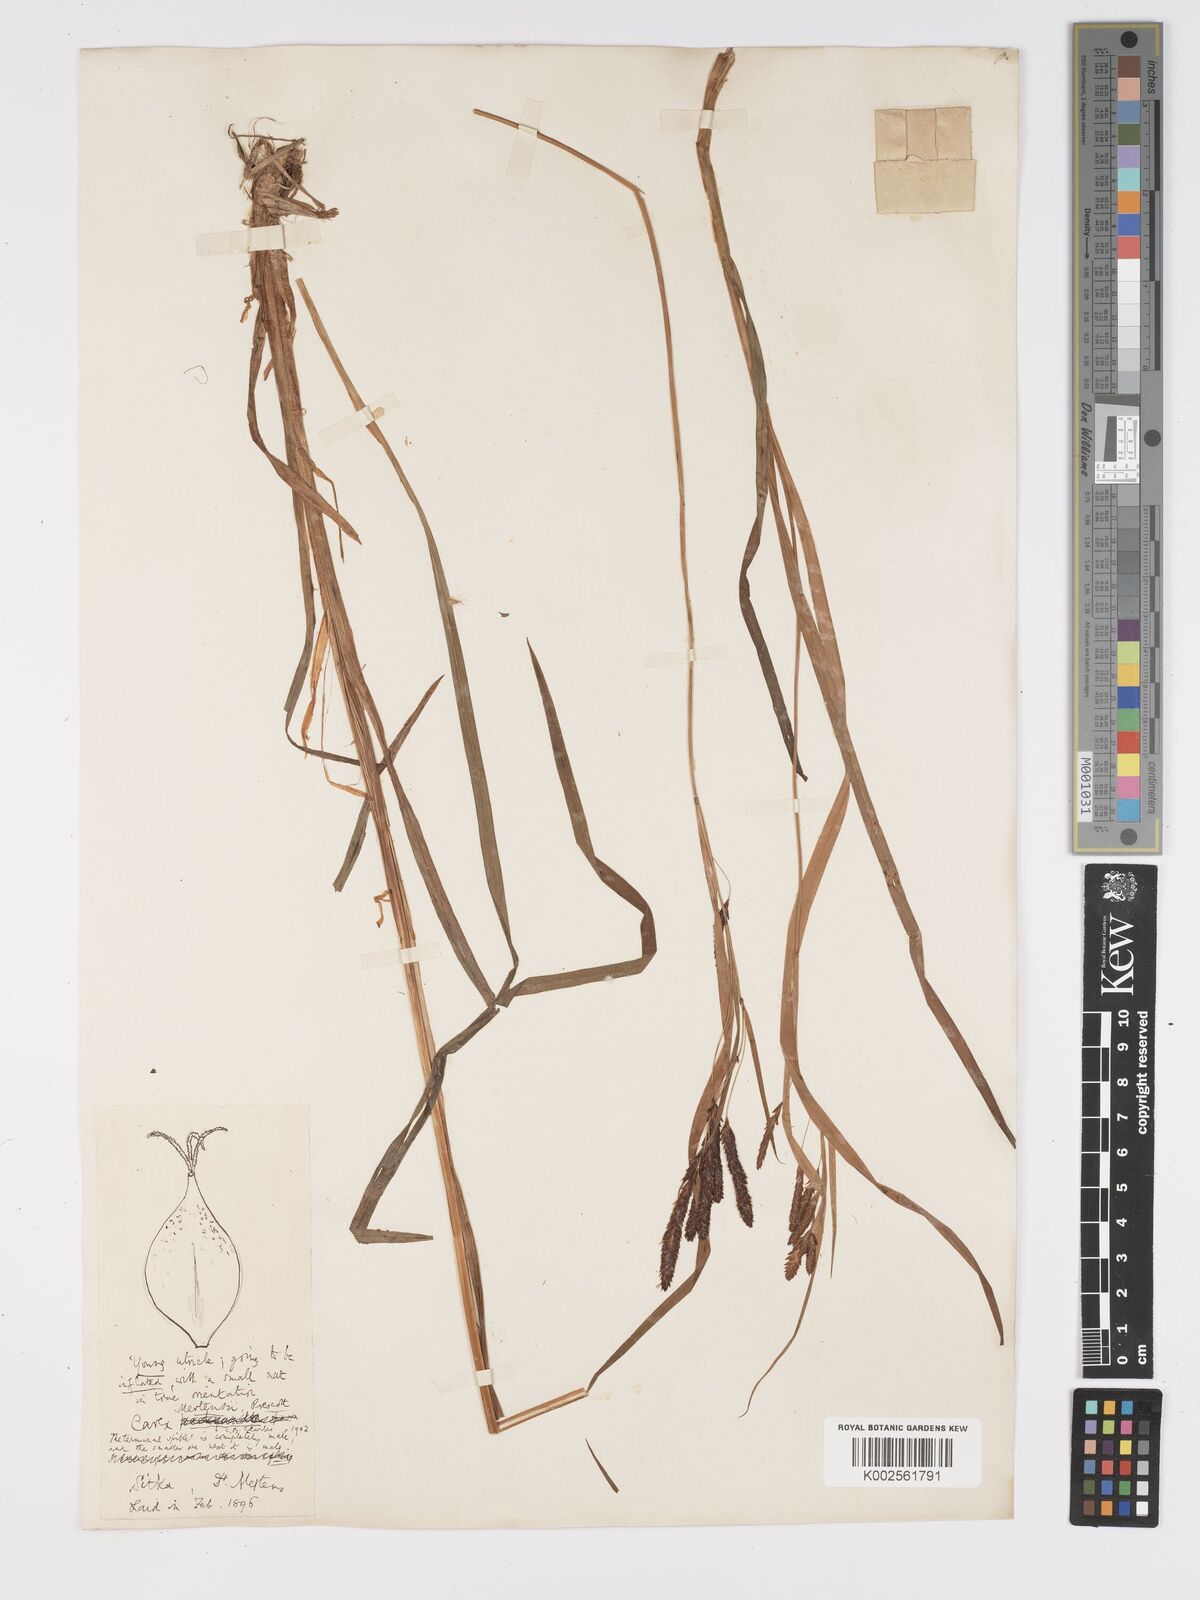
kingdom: Plantae
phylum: Tracheophyta
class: Liliopsida
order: Poales
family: Cyperaceae
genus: Carex
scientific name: Carex mertensii
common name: Mertens' sedge
